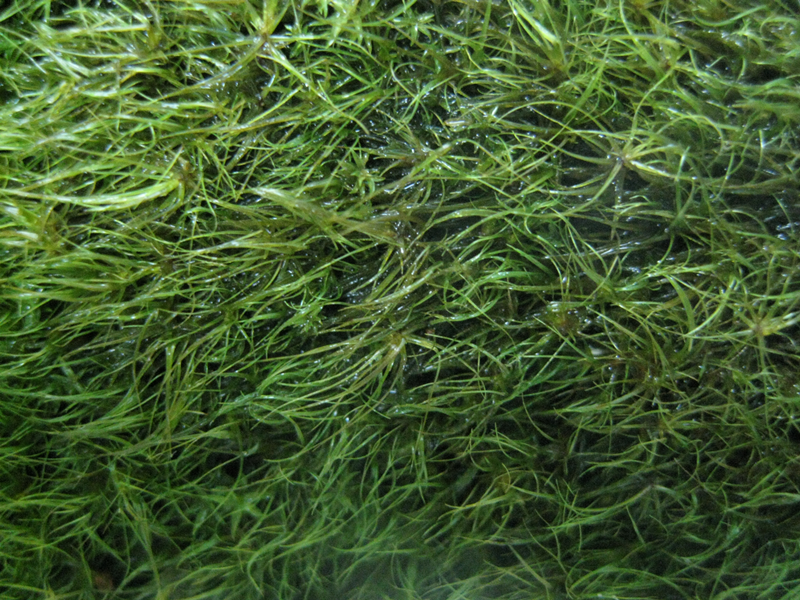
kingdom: Plantae
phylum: Bryophyta
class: Bryopsida
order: Dicranales
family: Dicranaceae
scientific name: Dicranaceae
